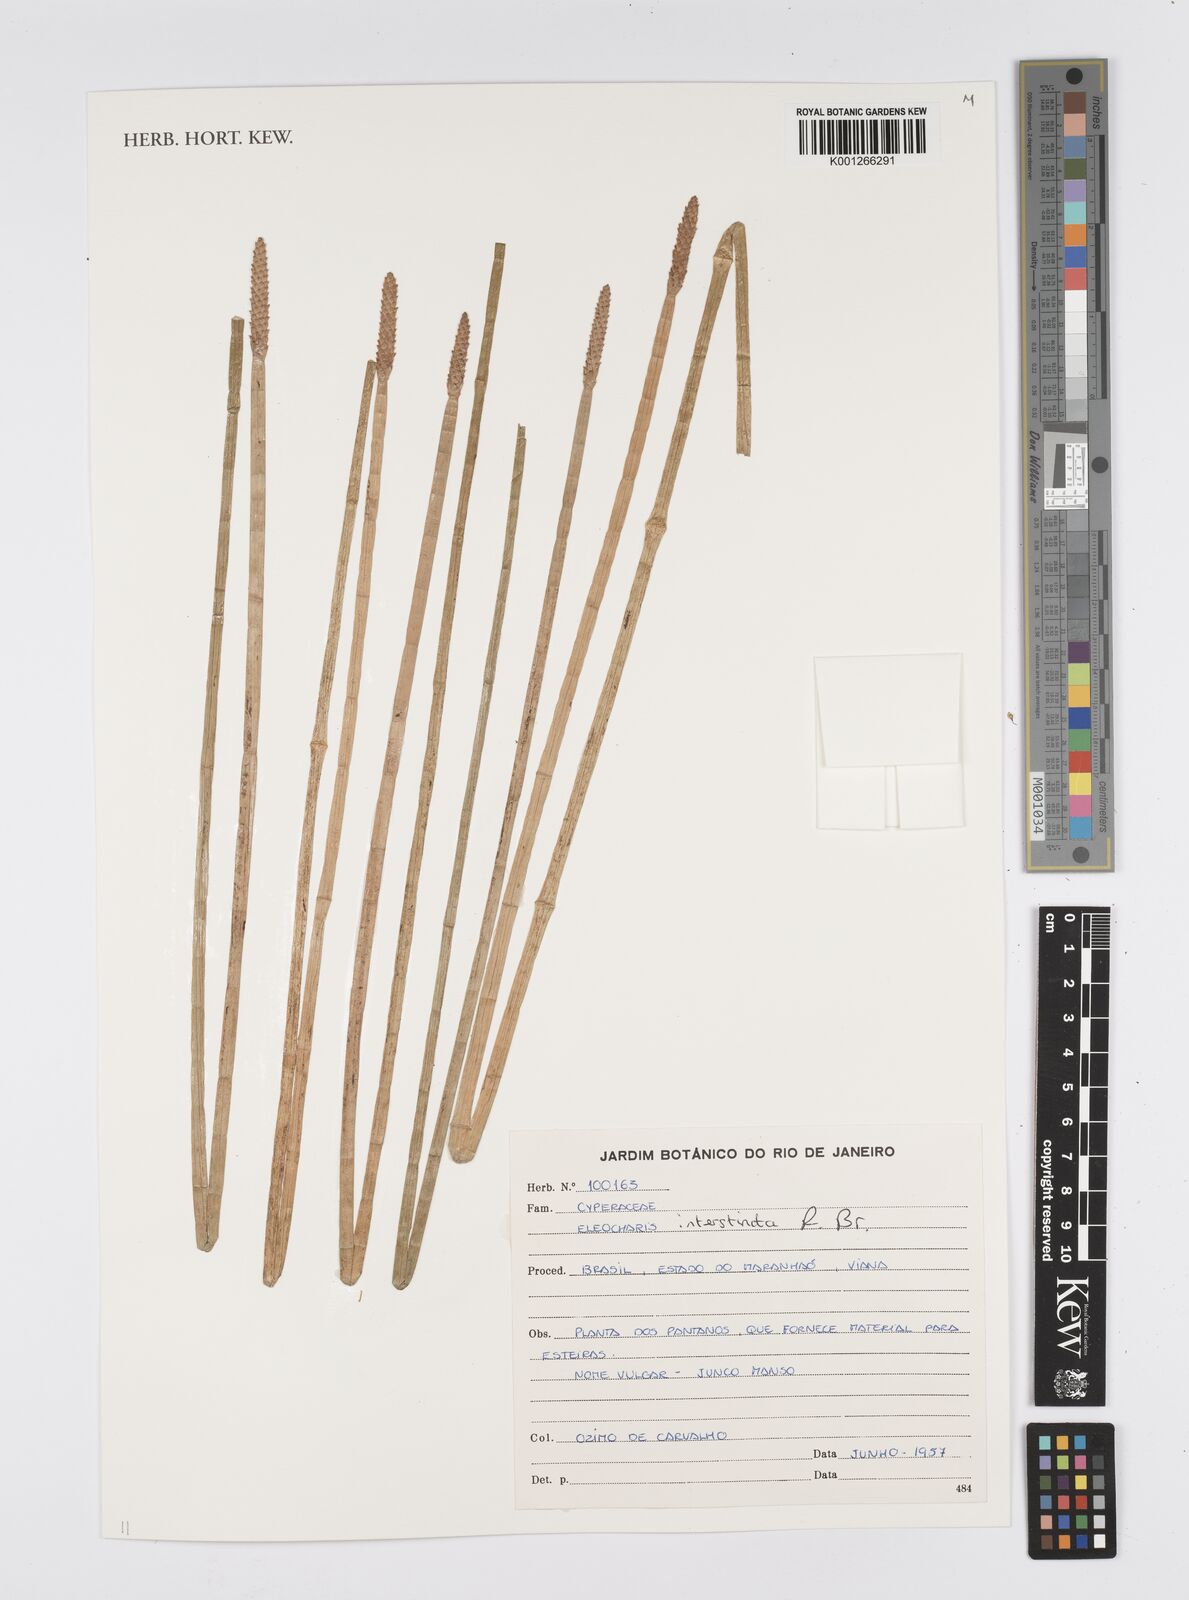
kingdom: Plantae
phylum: Tracheophyta
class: Liliopsida
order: Poales
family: Cyperaceae
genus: Eleocharis
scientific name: Eleocharis interstincta
